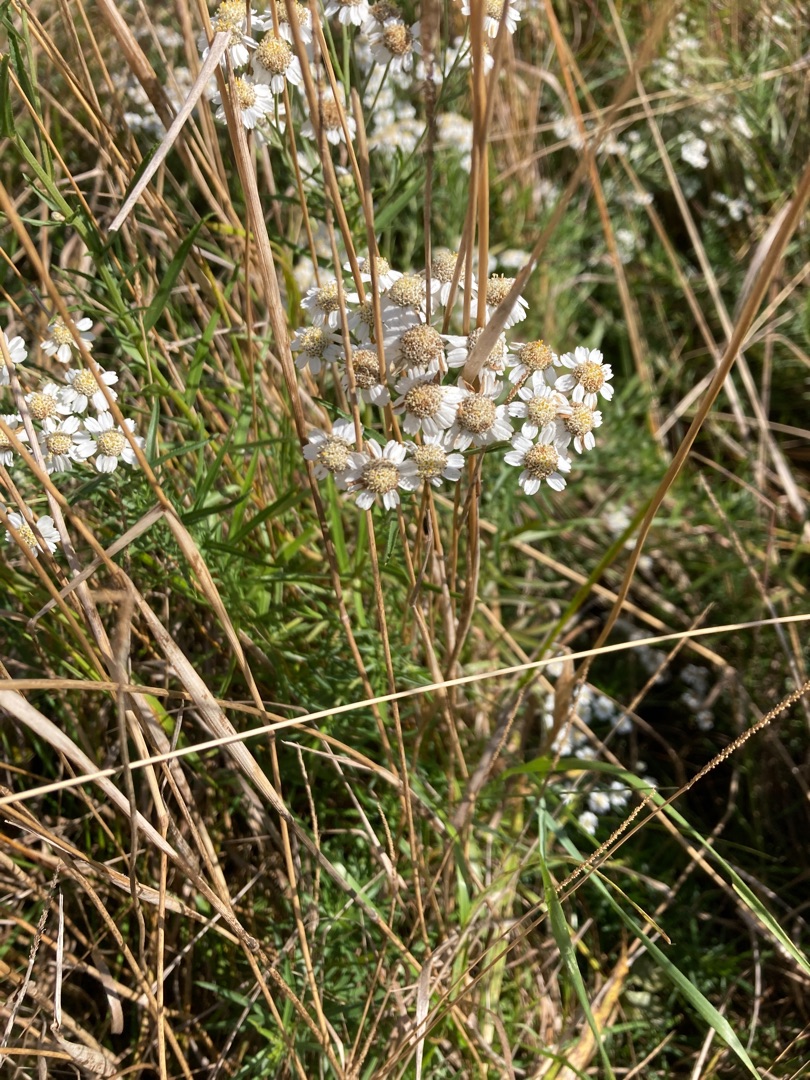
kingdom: Plantae
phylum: Tracheophyta
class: Magnoliopsida
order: Asterales
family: Asteraceae
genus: Achillea
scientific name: Achillea ptarmica
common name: Nyse-røllike
